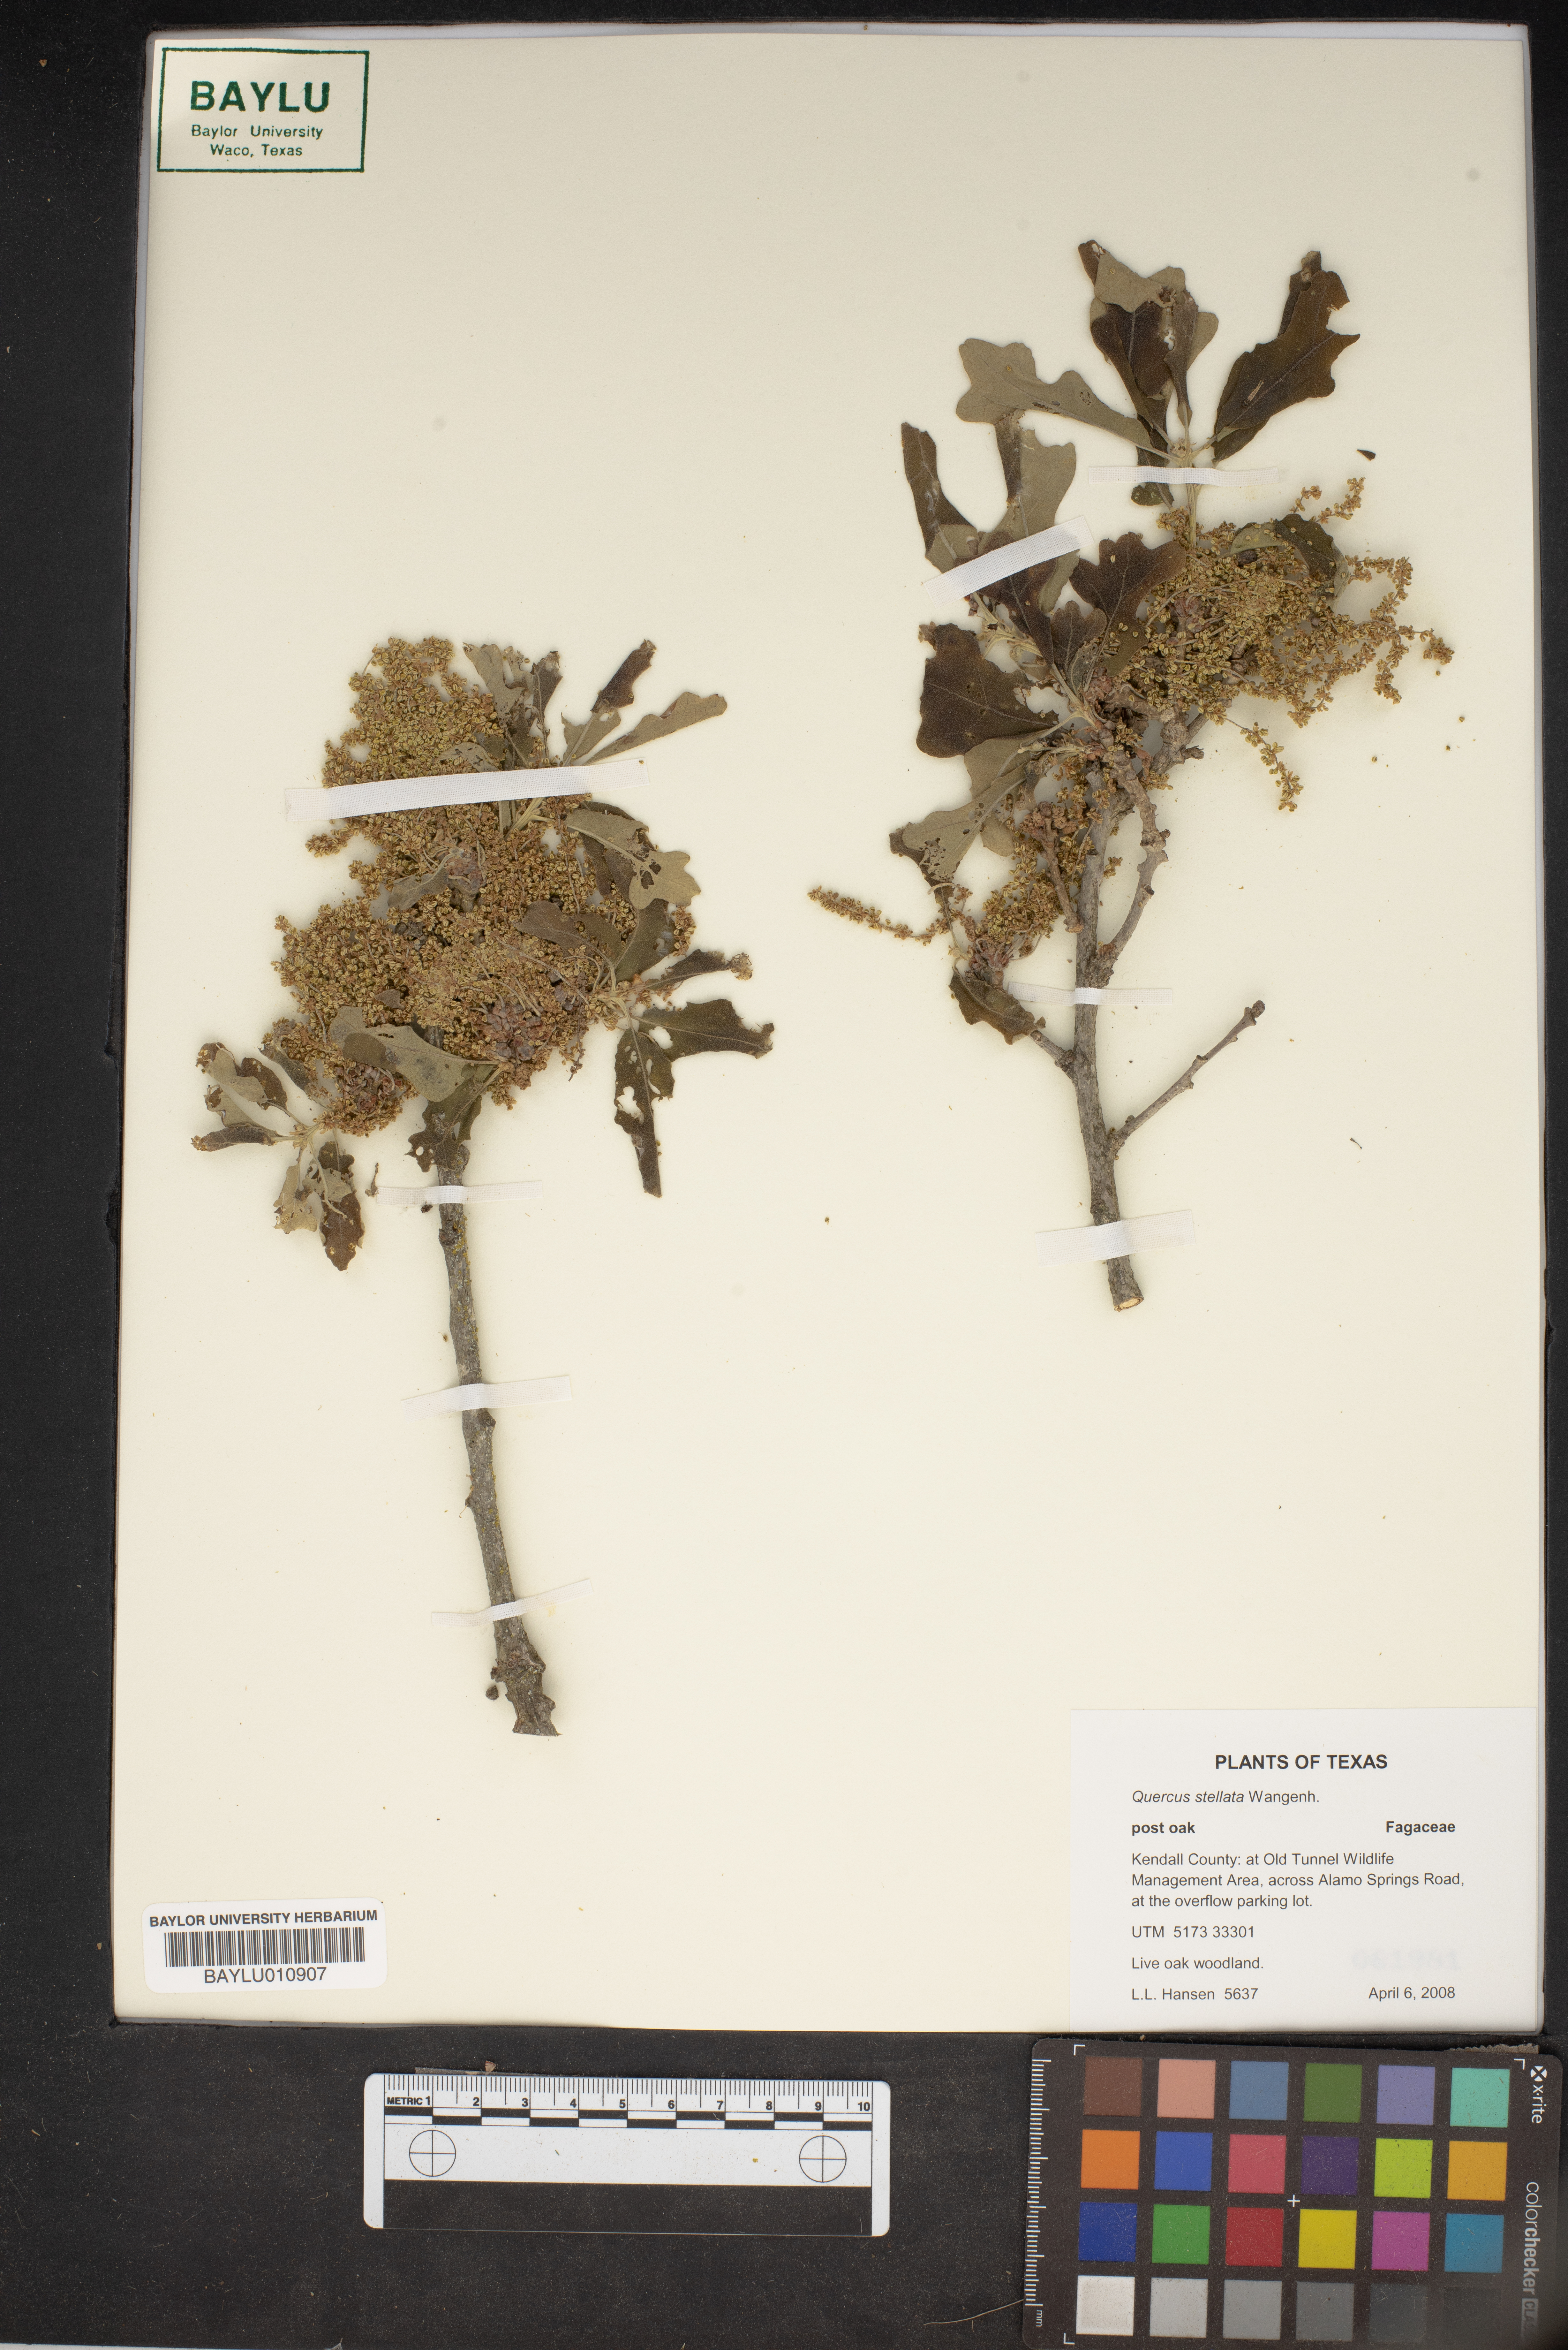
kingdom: Plantae
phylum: Tracheophyta
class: Magnoliopsida
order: Fagales
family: Fagaceae
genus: Quercus
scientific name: Quercus stellata
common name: Post oak
